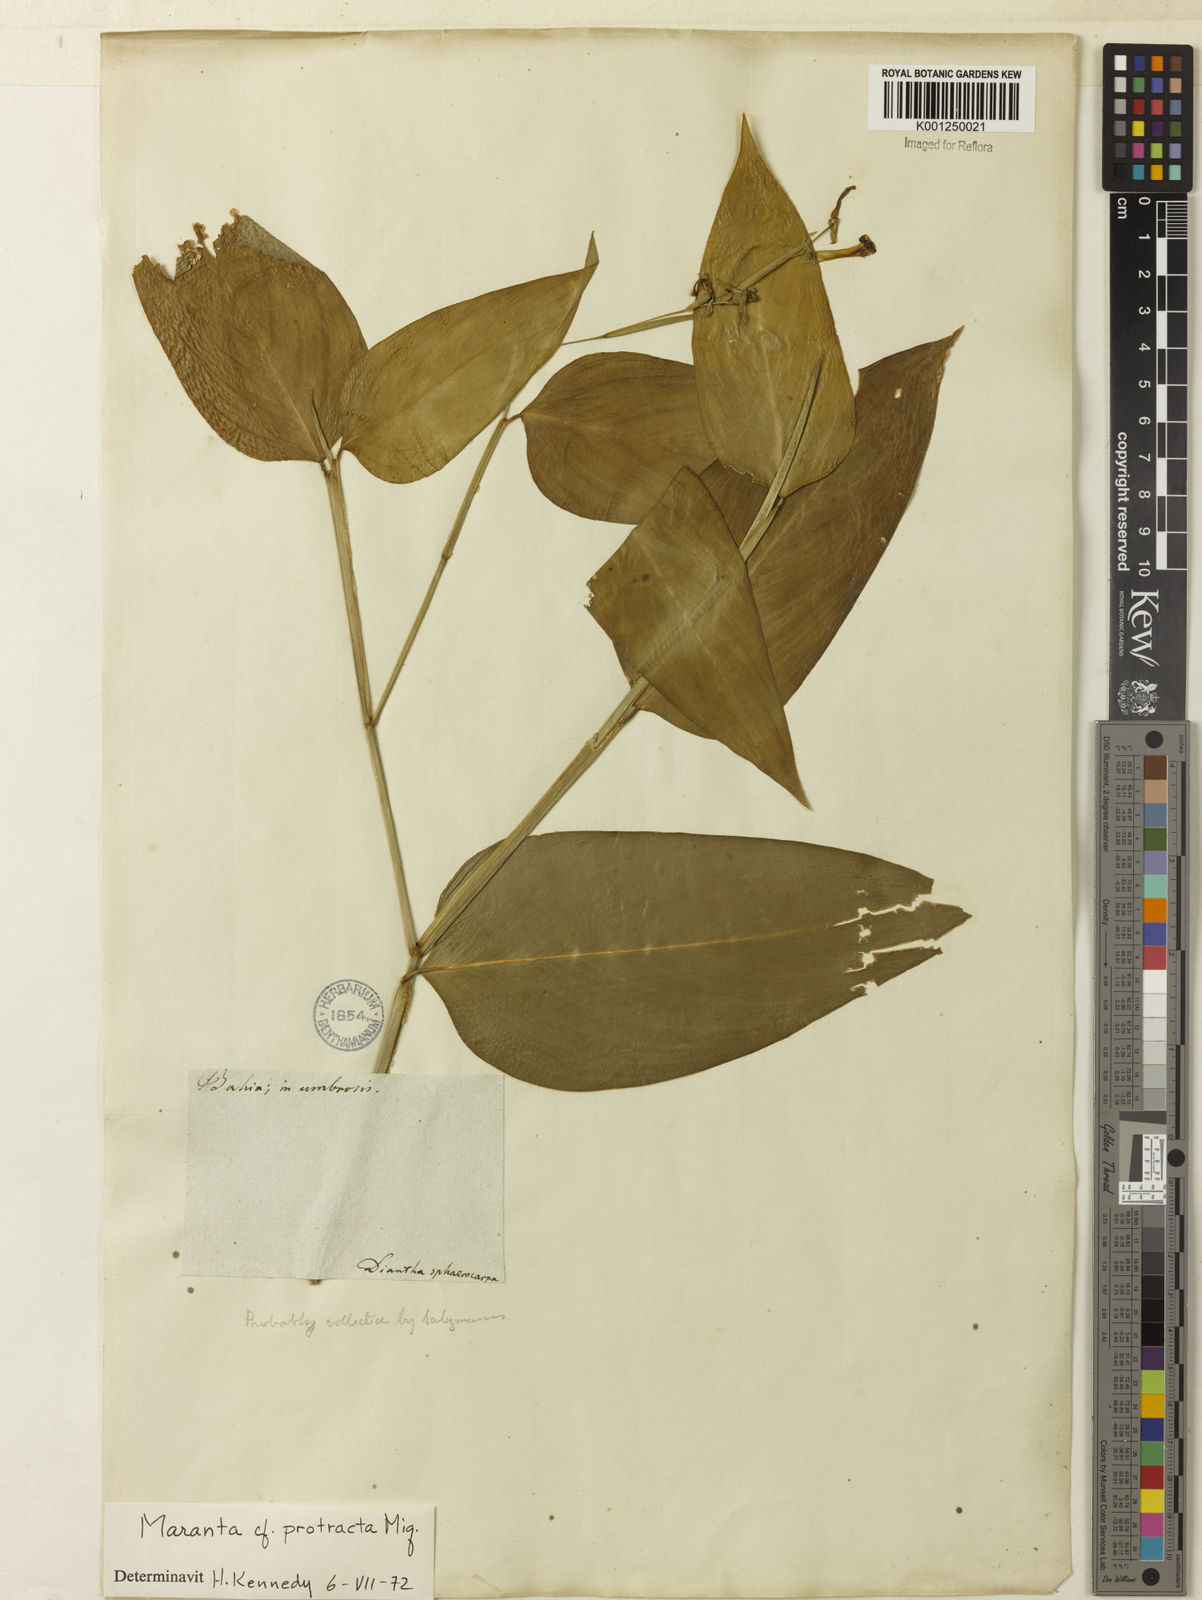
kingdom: Plantae
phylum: Tracheophyta
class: Liliopsida
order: Zingiberales
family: Marantaceae
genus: Maranta
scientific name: Maranta protracta
